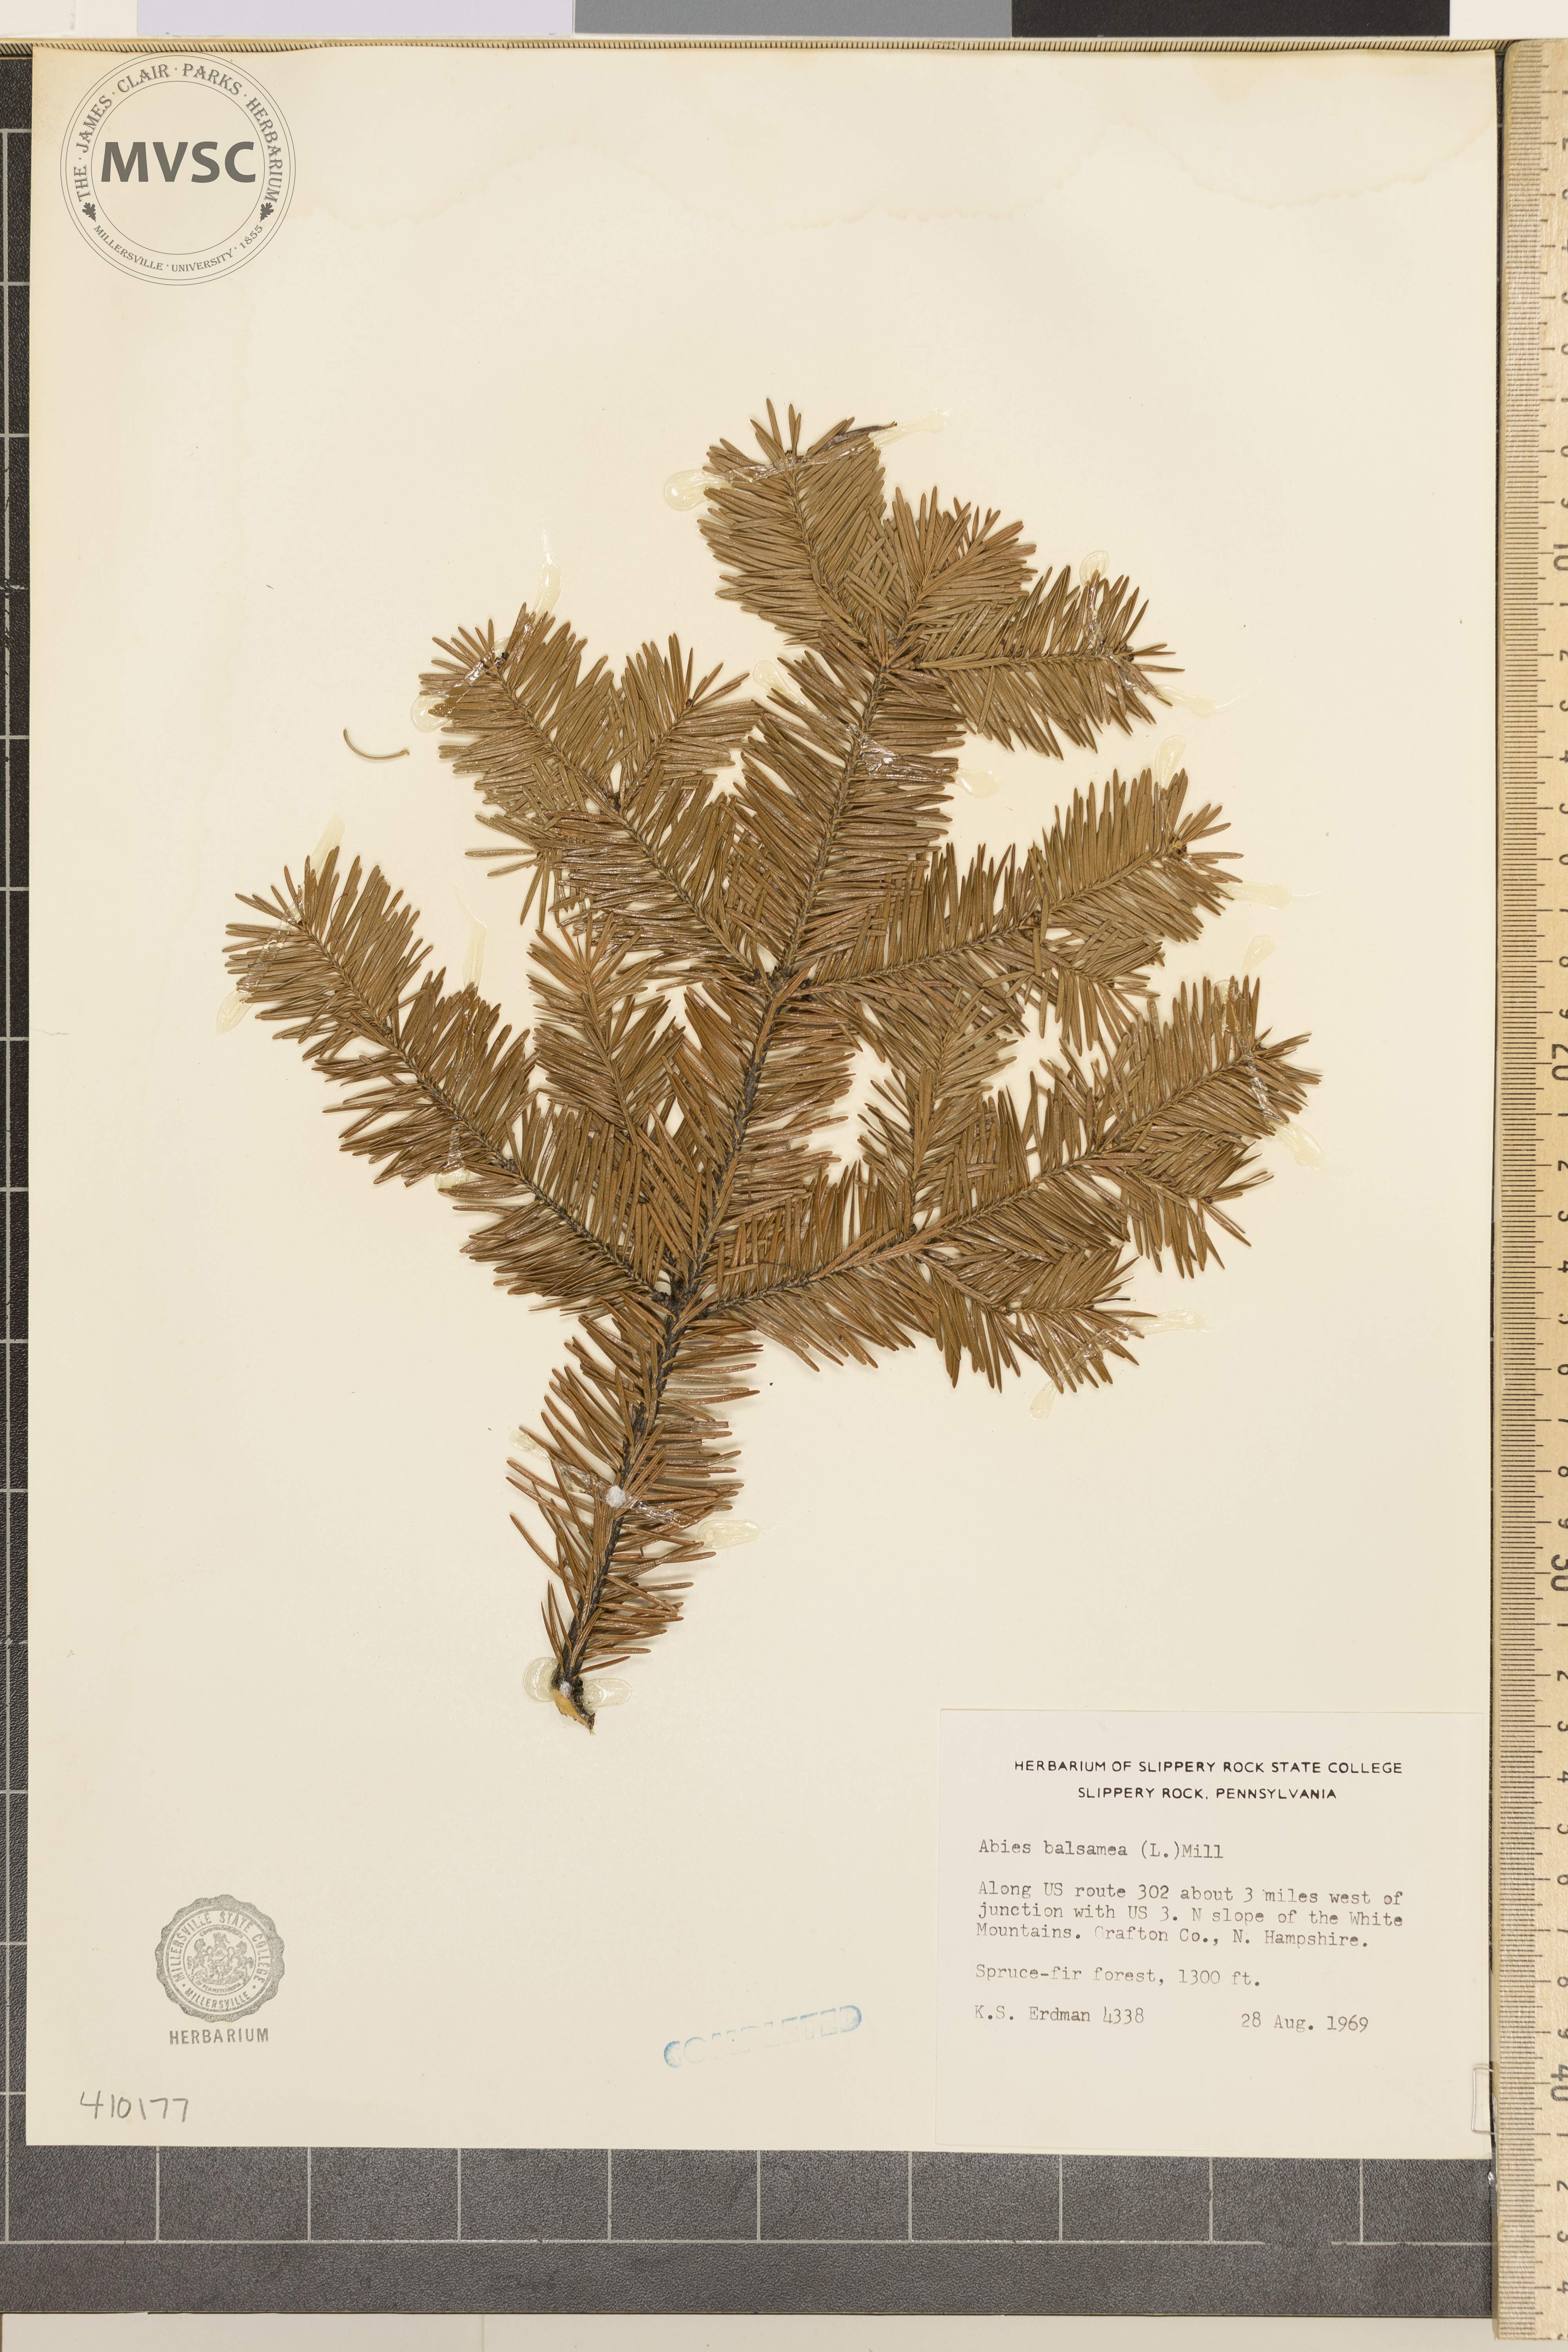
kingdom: Plantae
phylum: Tracheophyta
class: Pinopsida
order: Pinales
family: Pinaceae
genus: Abies
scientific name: Abies balsamea
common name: balsam fir
